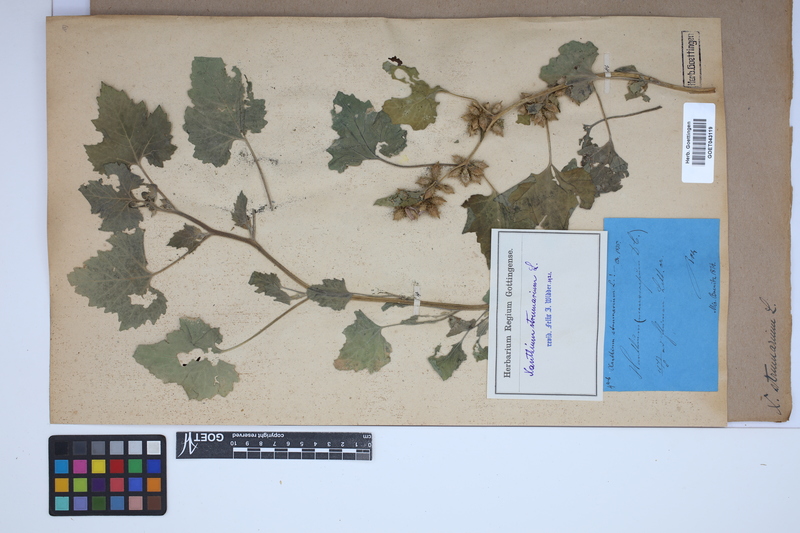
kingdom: Plantae
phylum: Tracheophyta
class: Magnoliopsida
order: Asterales
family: Asteraceae
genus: Xanthium
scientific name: Xanthium strumarium
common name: Rough cocklebur
